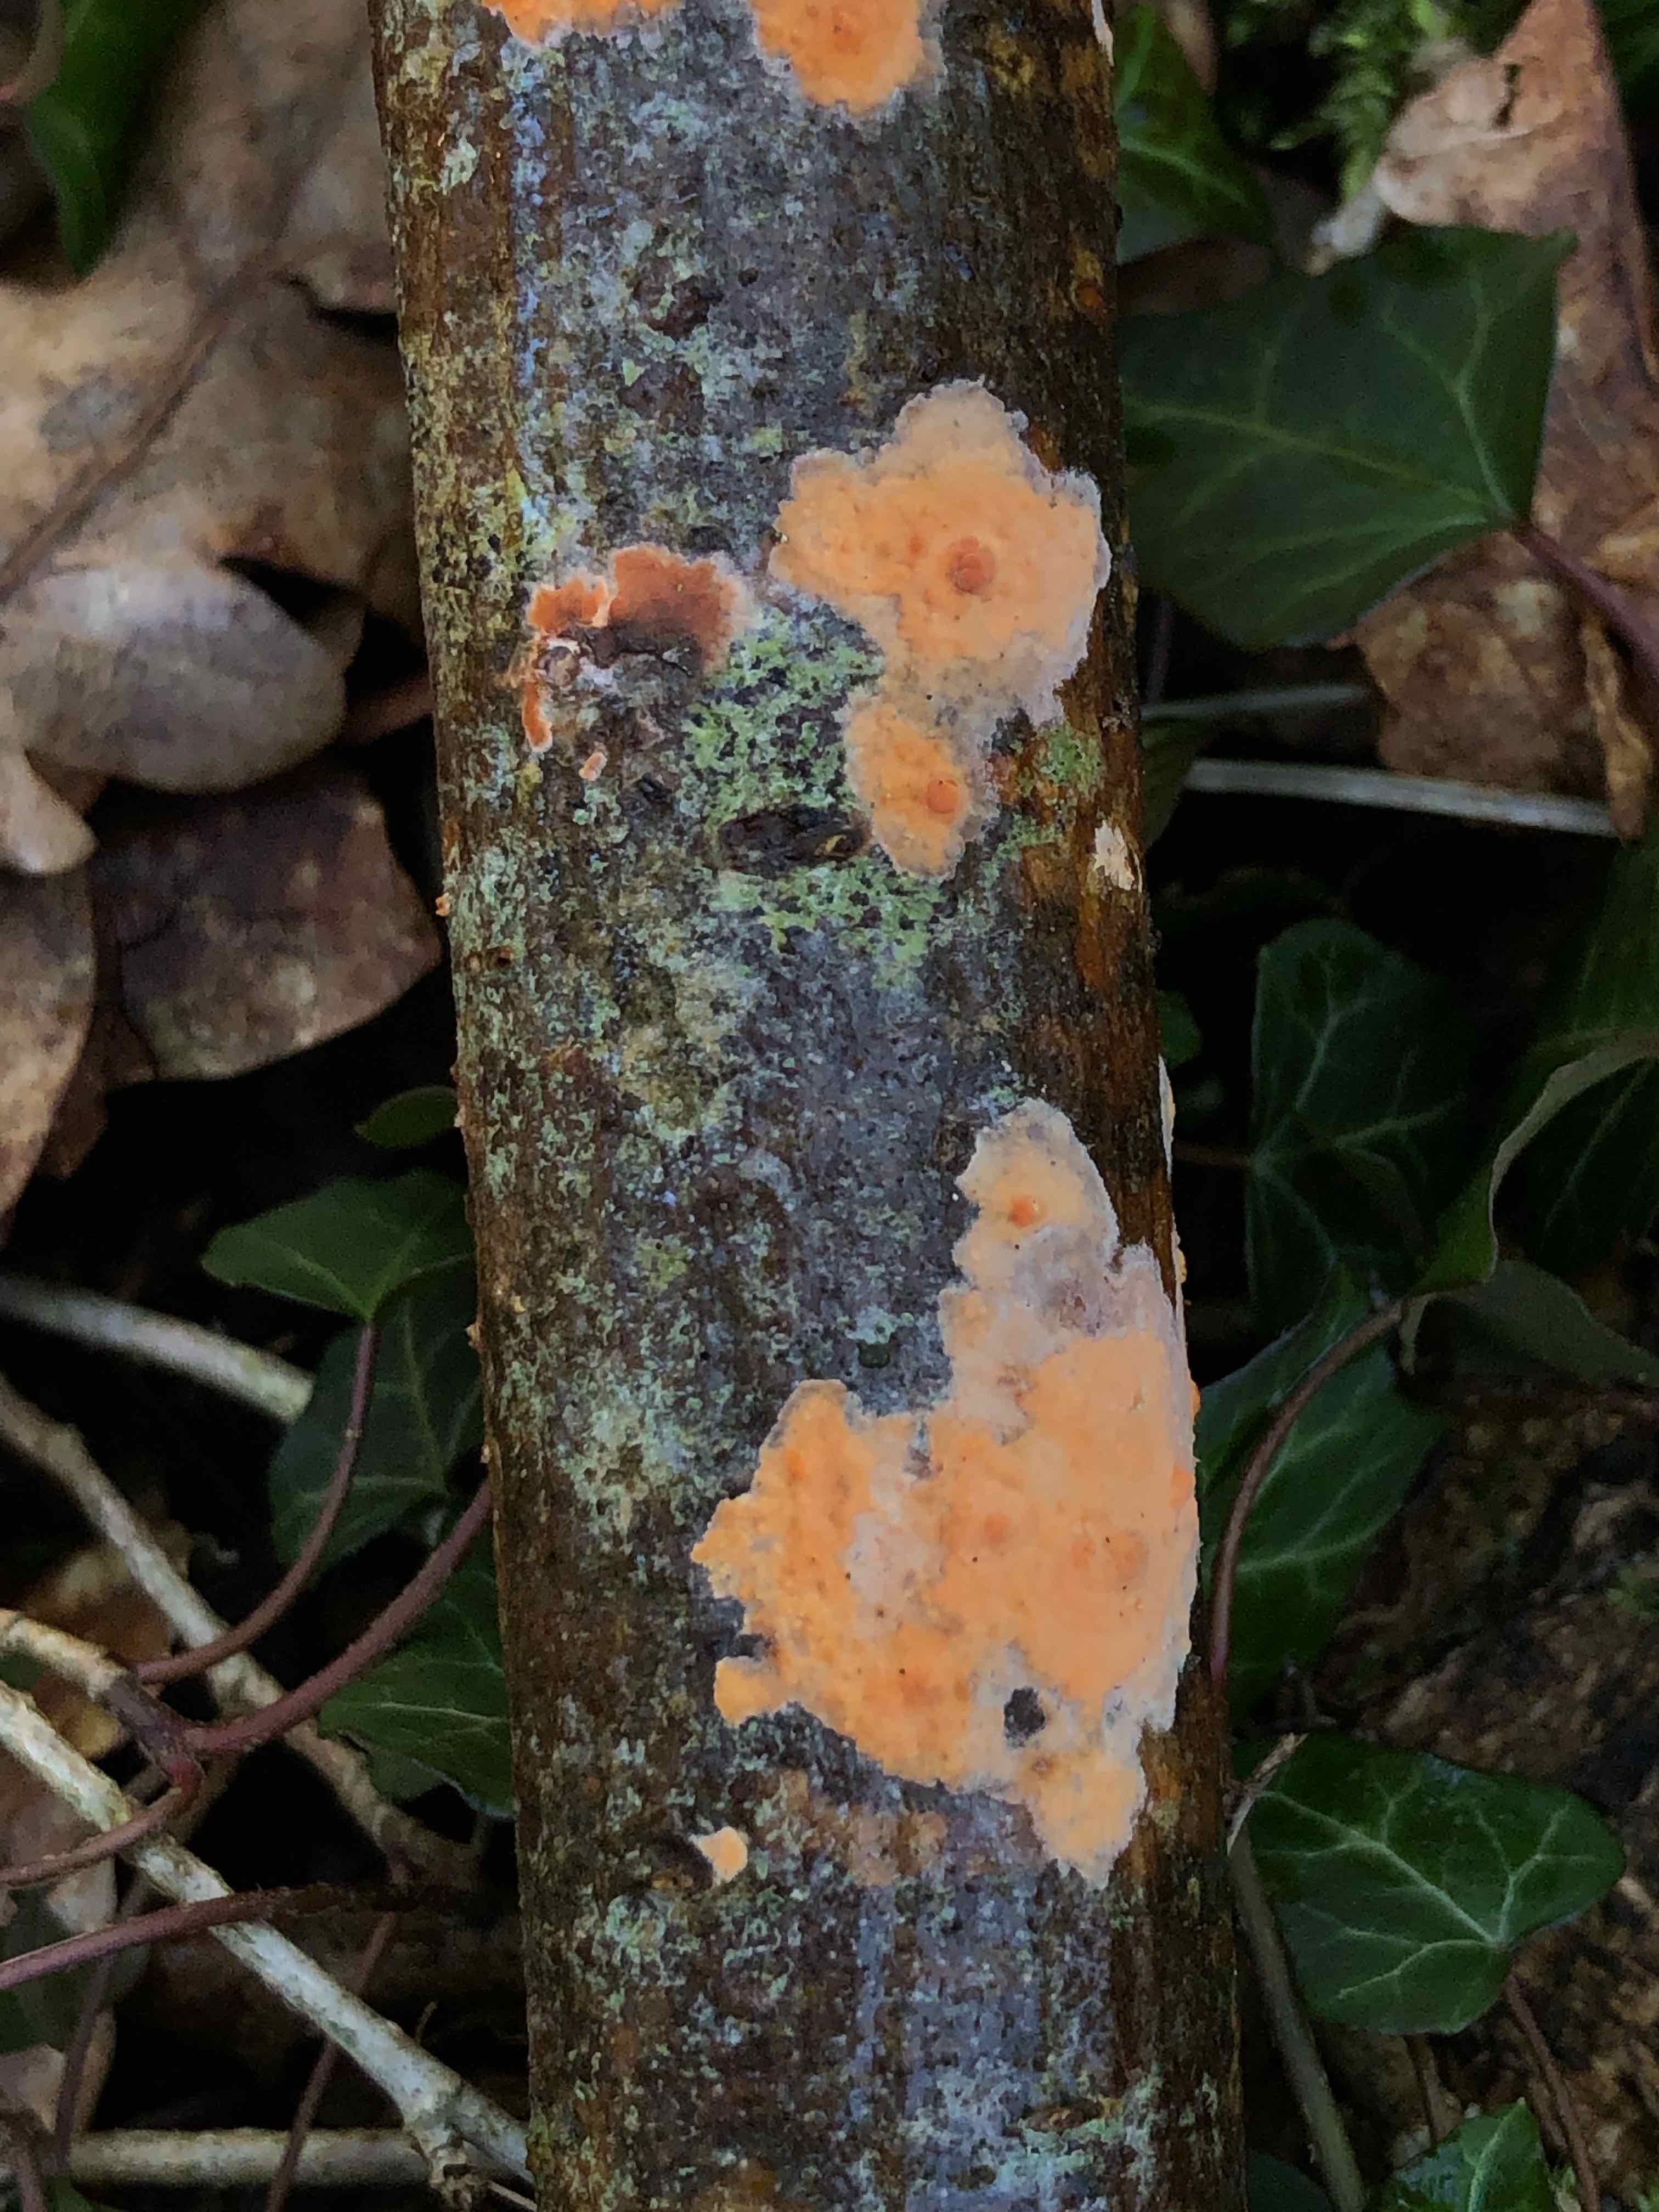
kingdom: Fungi
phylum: Basidiomycota
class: Agaricomycetes
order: Russulales
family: Peniophoraceae
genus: Peniophora
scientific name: Peniophora incarnata
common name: laksefarvet voksskind
